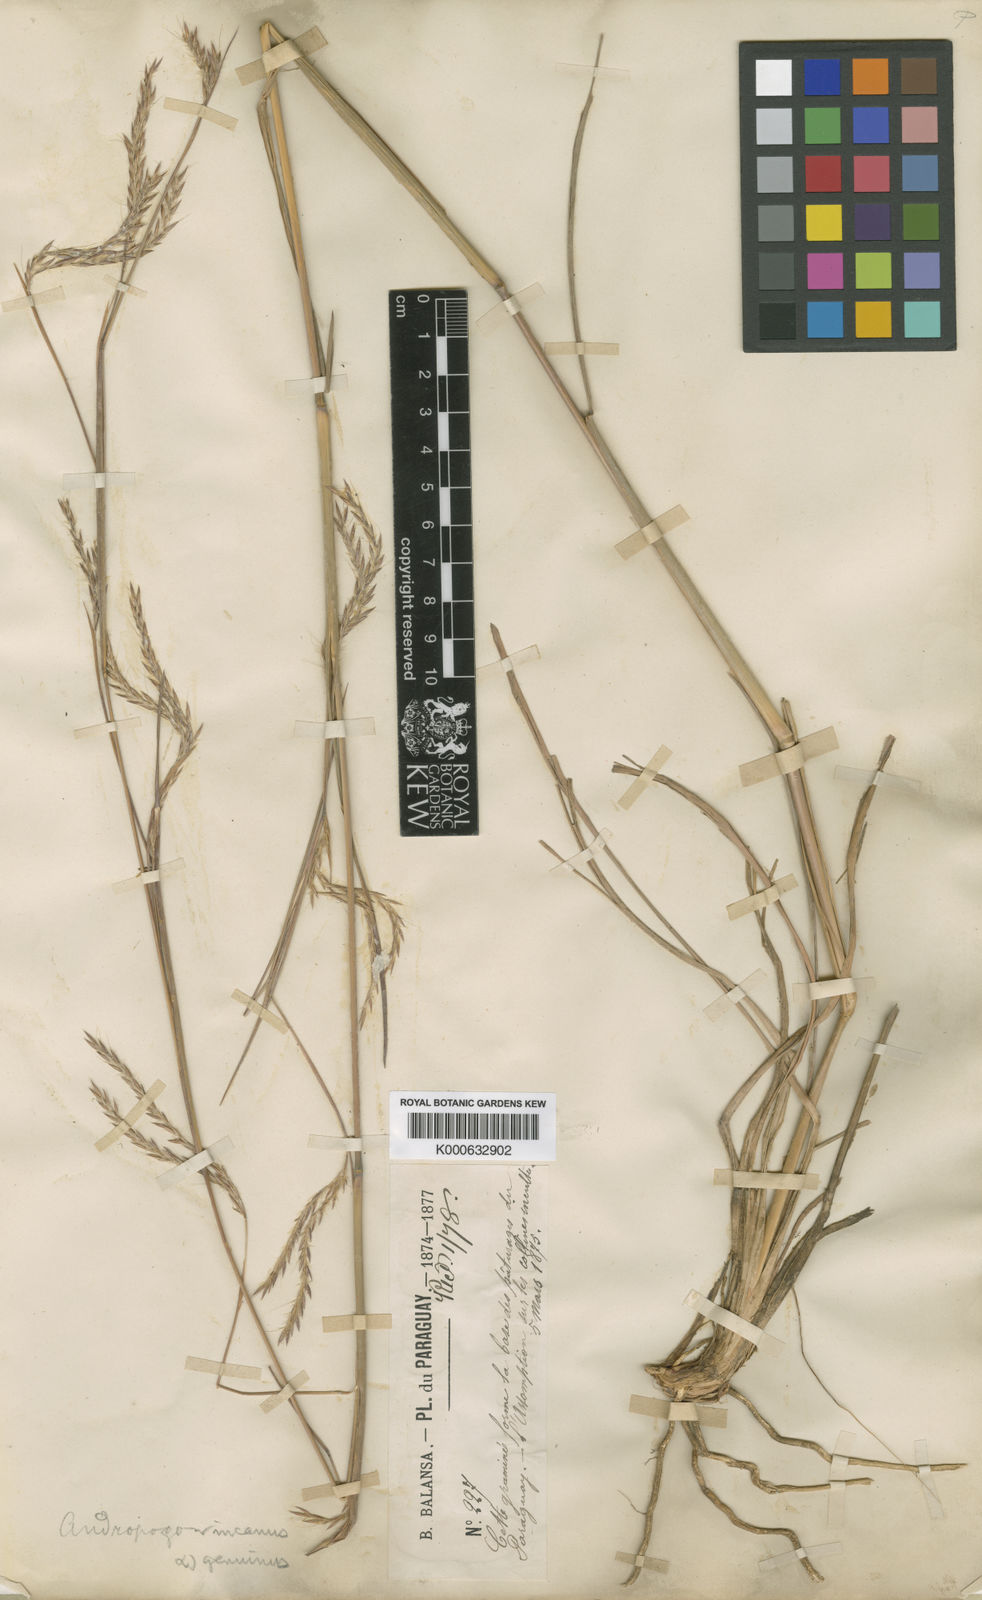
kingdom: Plantae
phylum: Tracheophyta
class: Liliopsida
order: Poales
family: Poaceae
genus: Andropogon
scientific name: Andropogon lateralis
